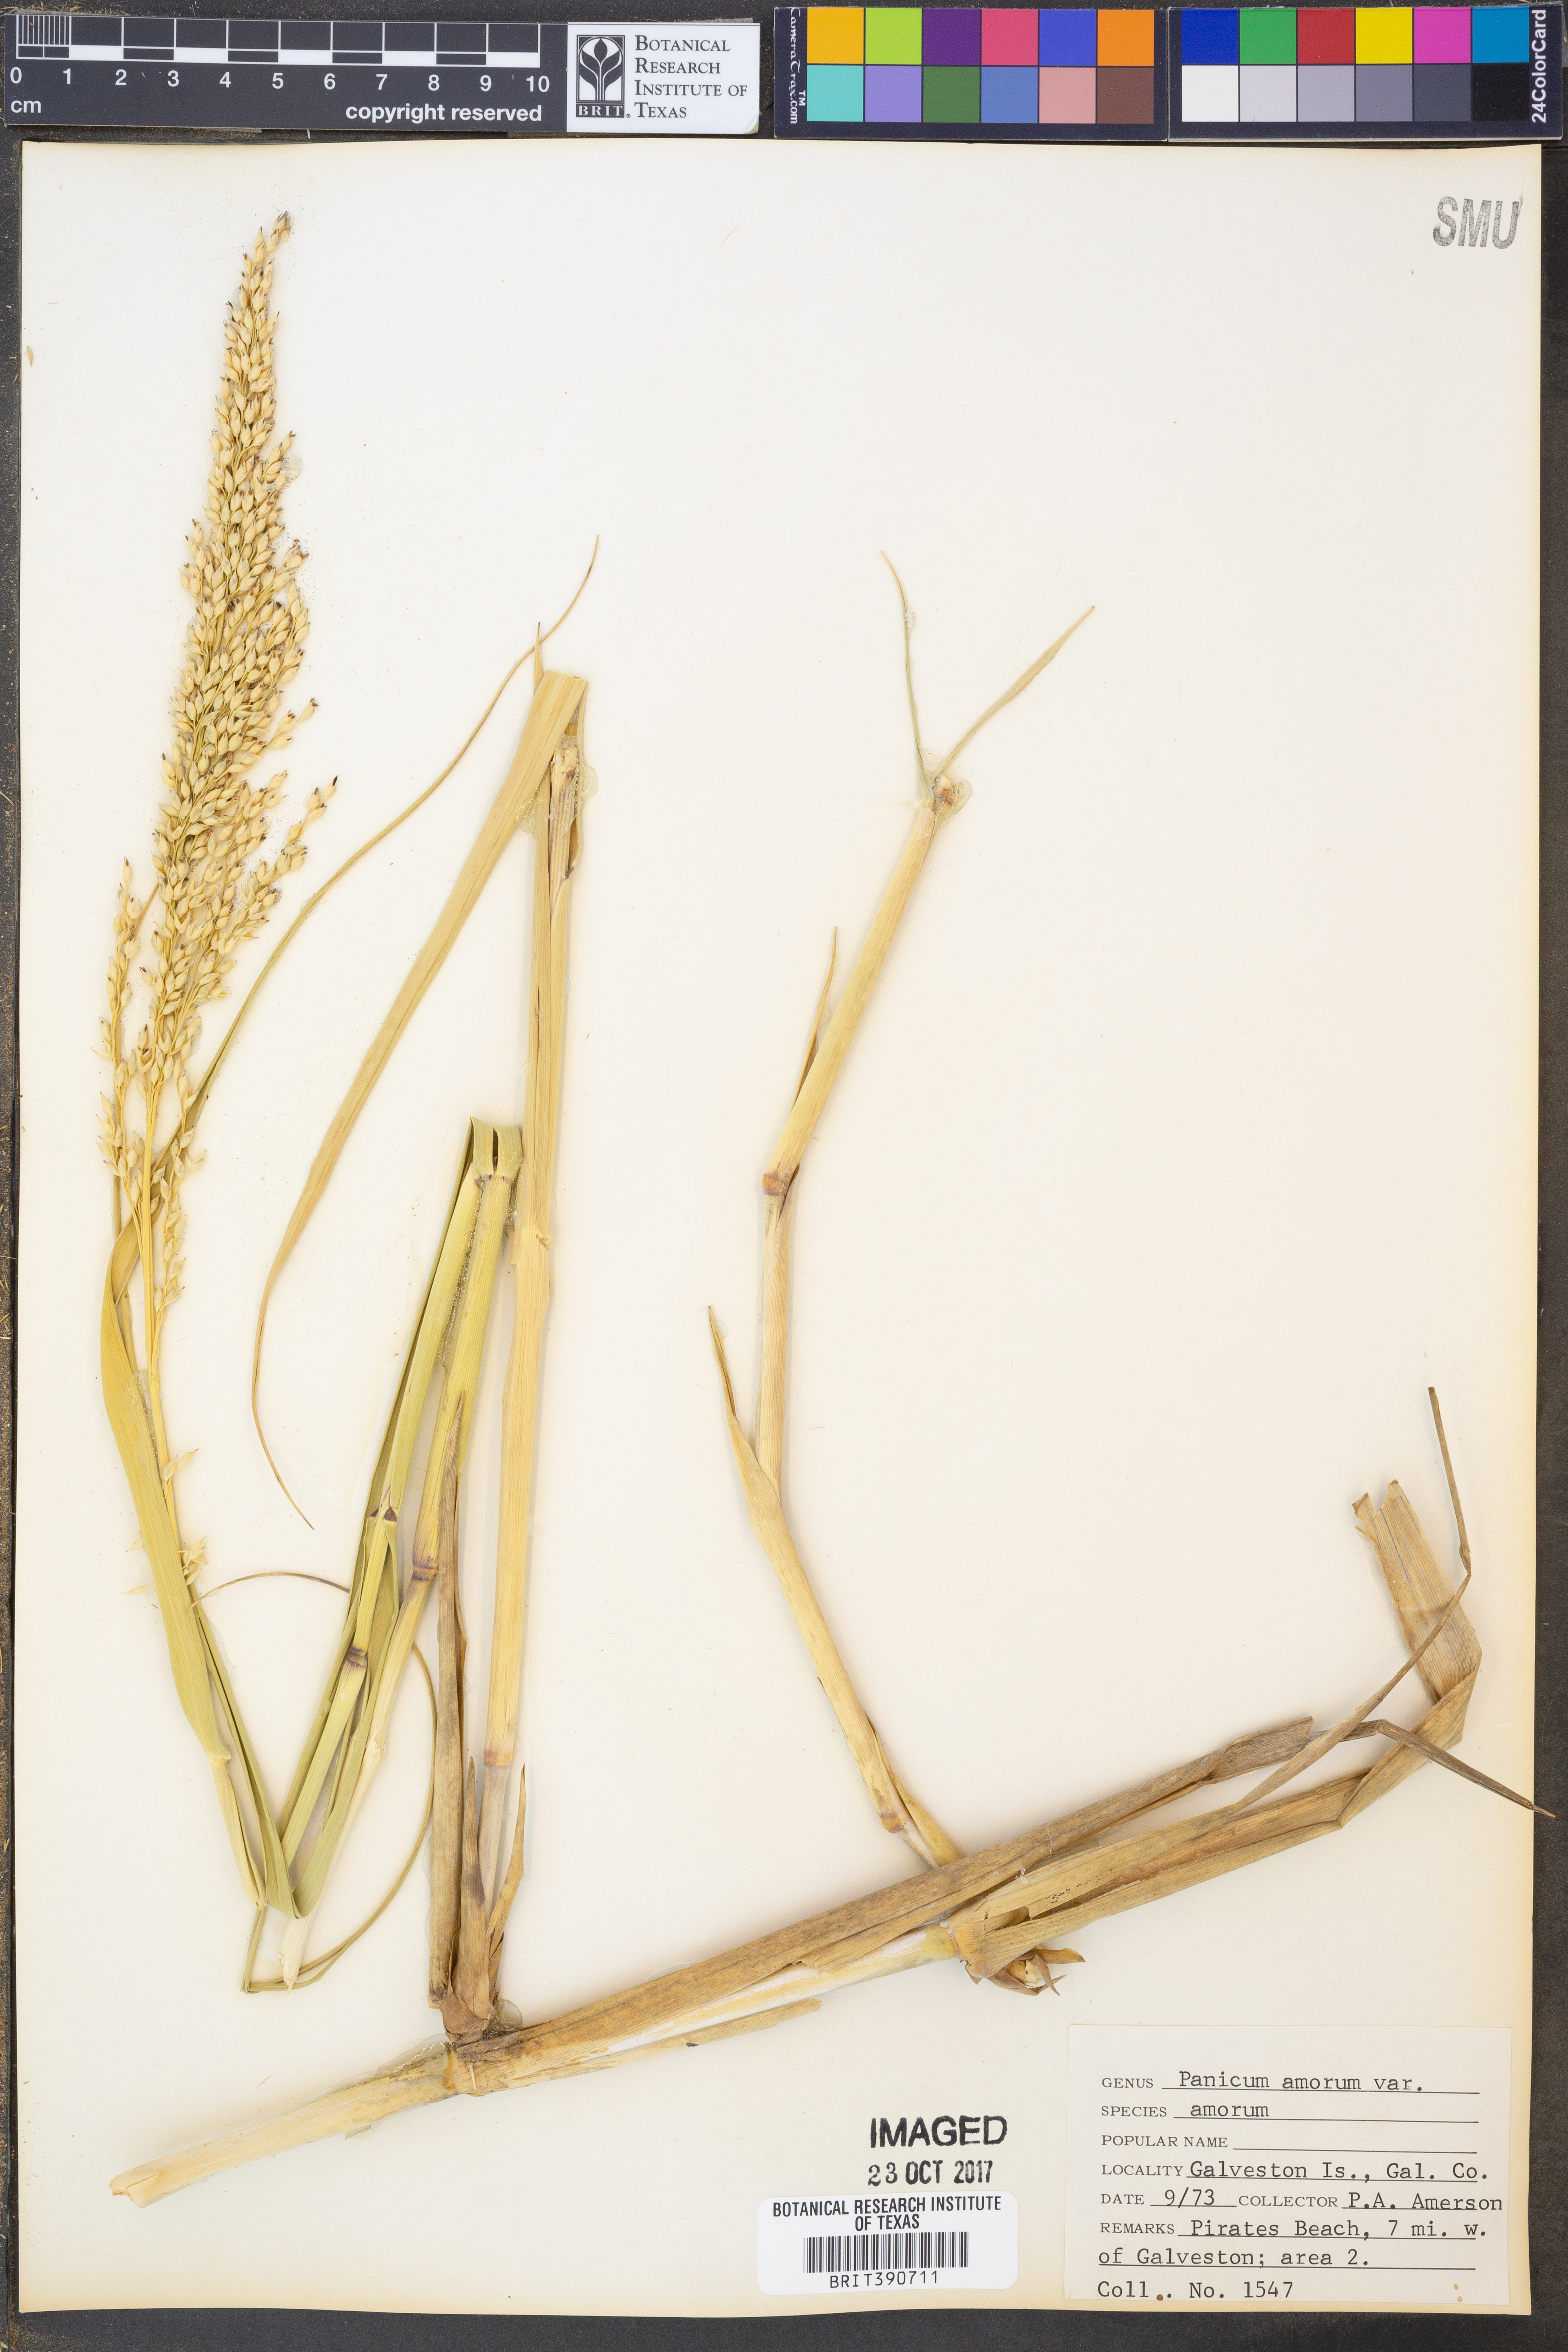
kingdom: Plantae
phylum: Tracheophyta
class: Liliopsida
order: Poales
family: Poaceae
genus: Panicum
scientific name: Panicum amarum
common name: Bitter panicum
